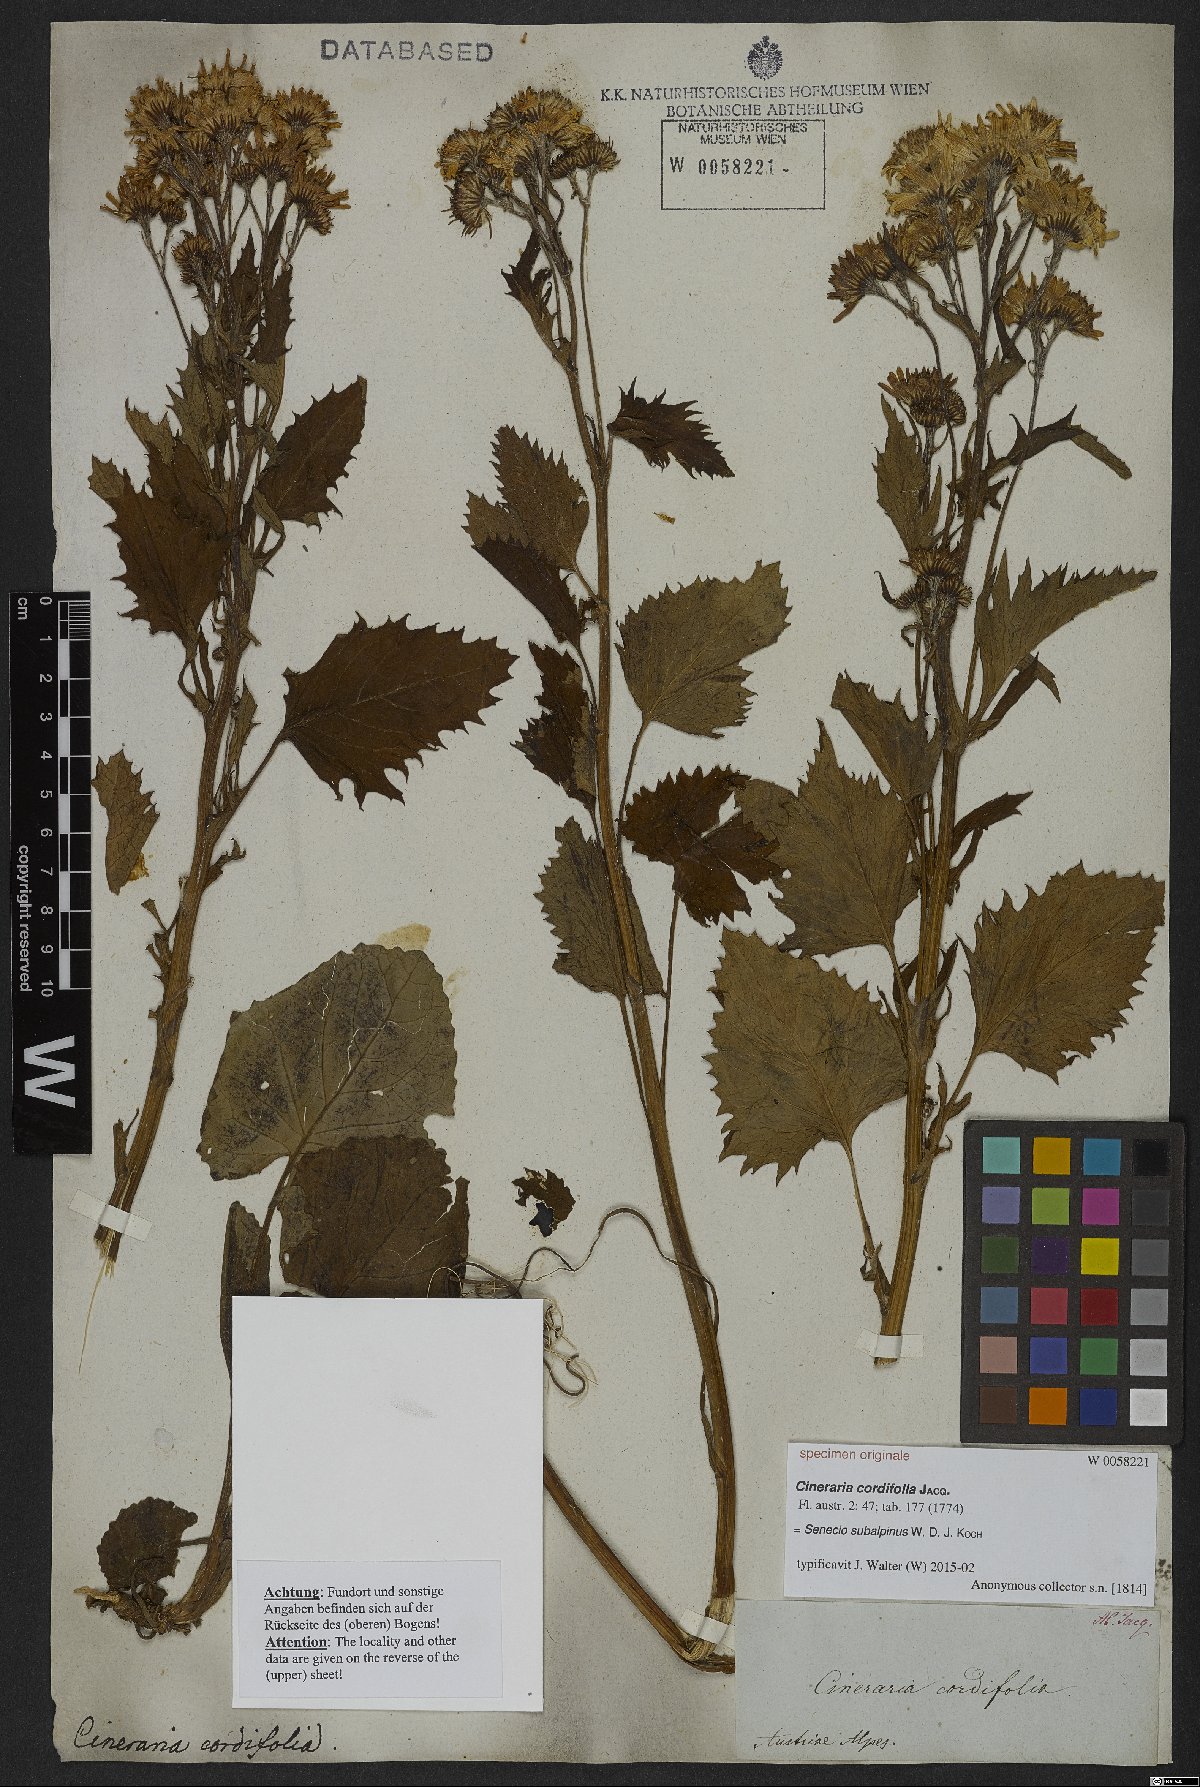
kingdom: Plantae
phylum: Tracheophyta
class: Magnoliopsida
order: Asterales
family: Asteraceae
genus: Jacobaea
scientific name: Jacobaea subalpina
